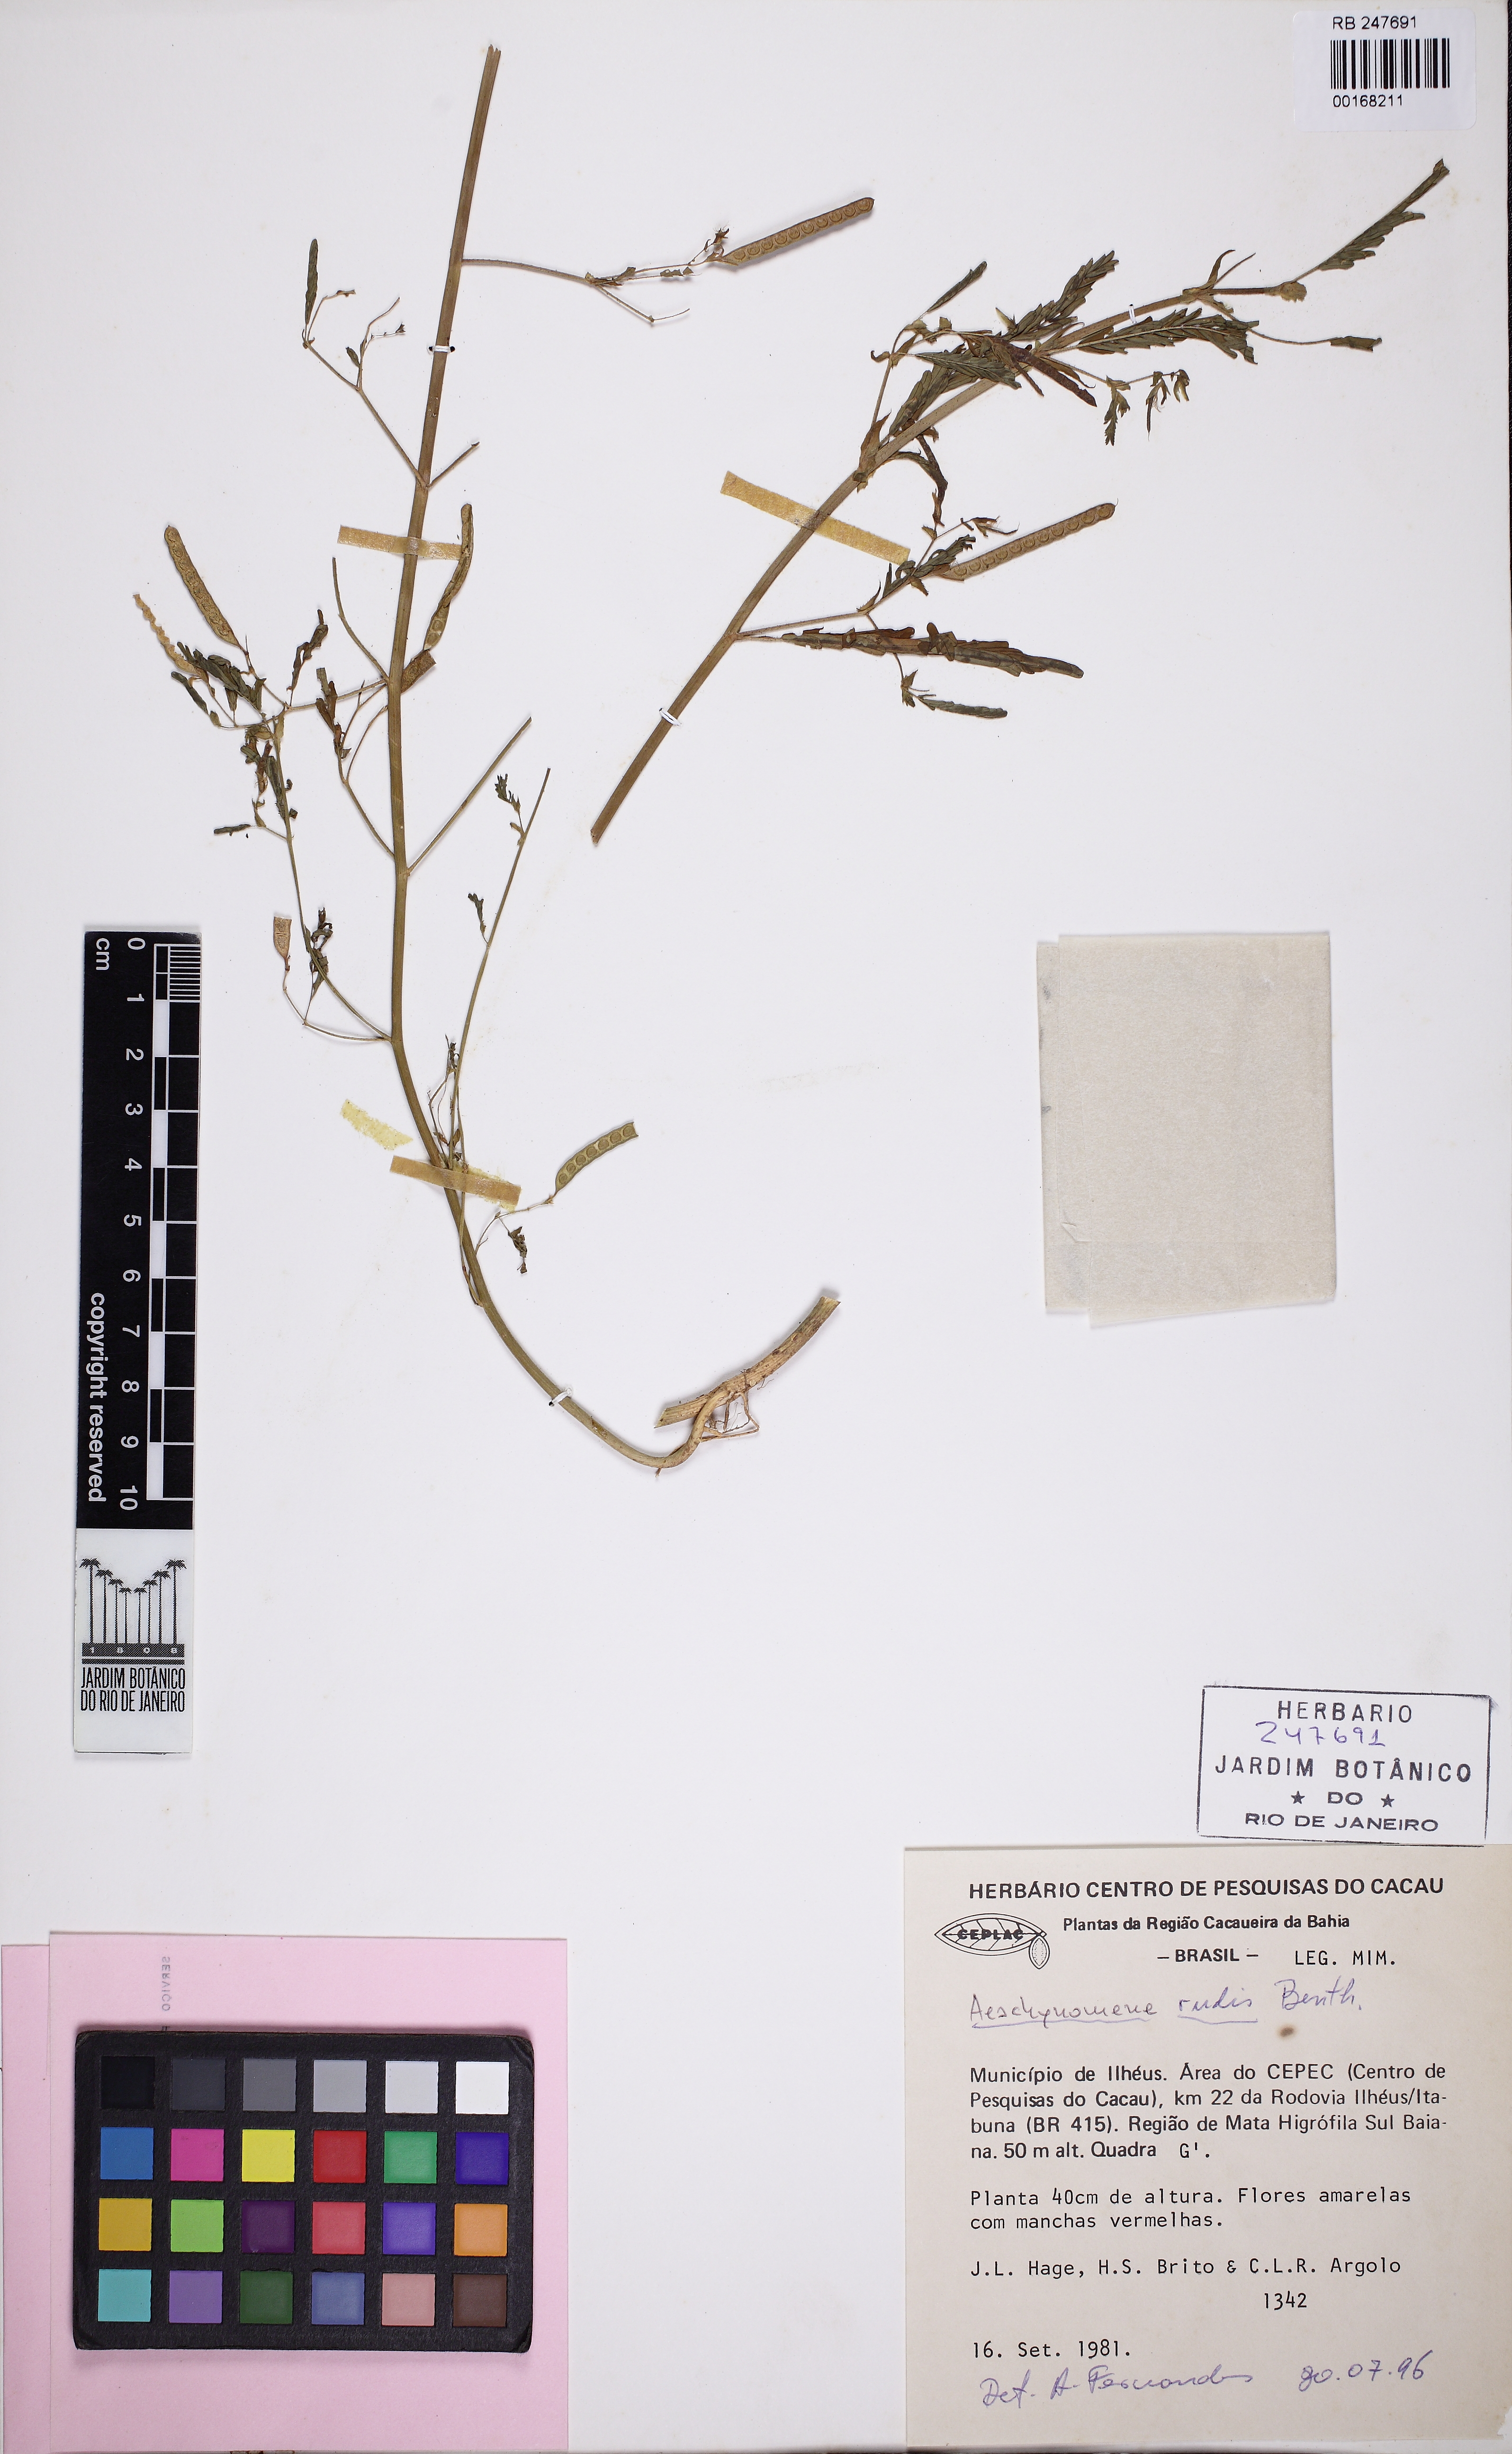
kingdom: Plantae
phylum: Tracheophyta
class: Magnoliopsida
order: Fabales
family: Fabaceae
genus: Aeschynomene
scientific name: Aeschynomene rudis
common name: Rough joint-vetch
